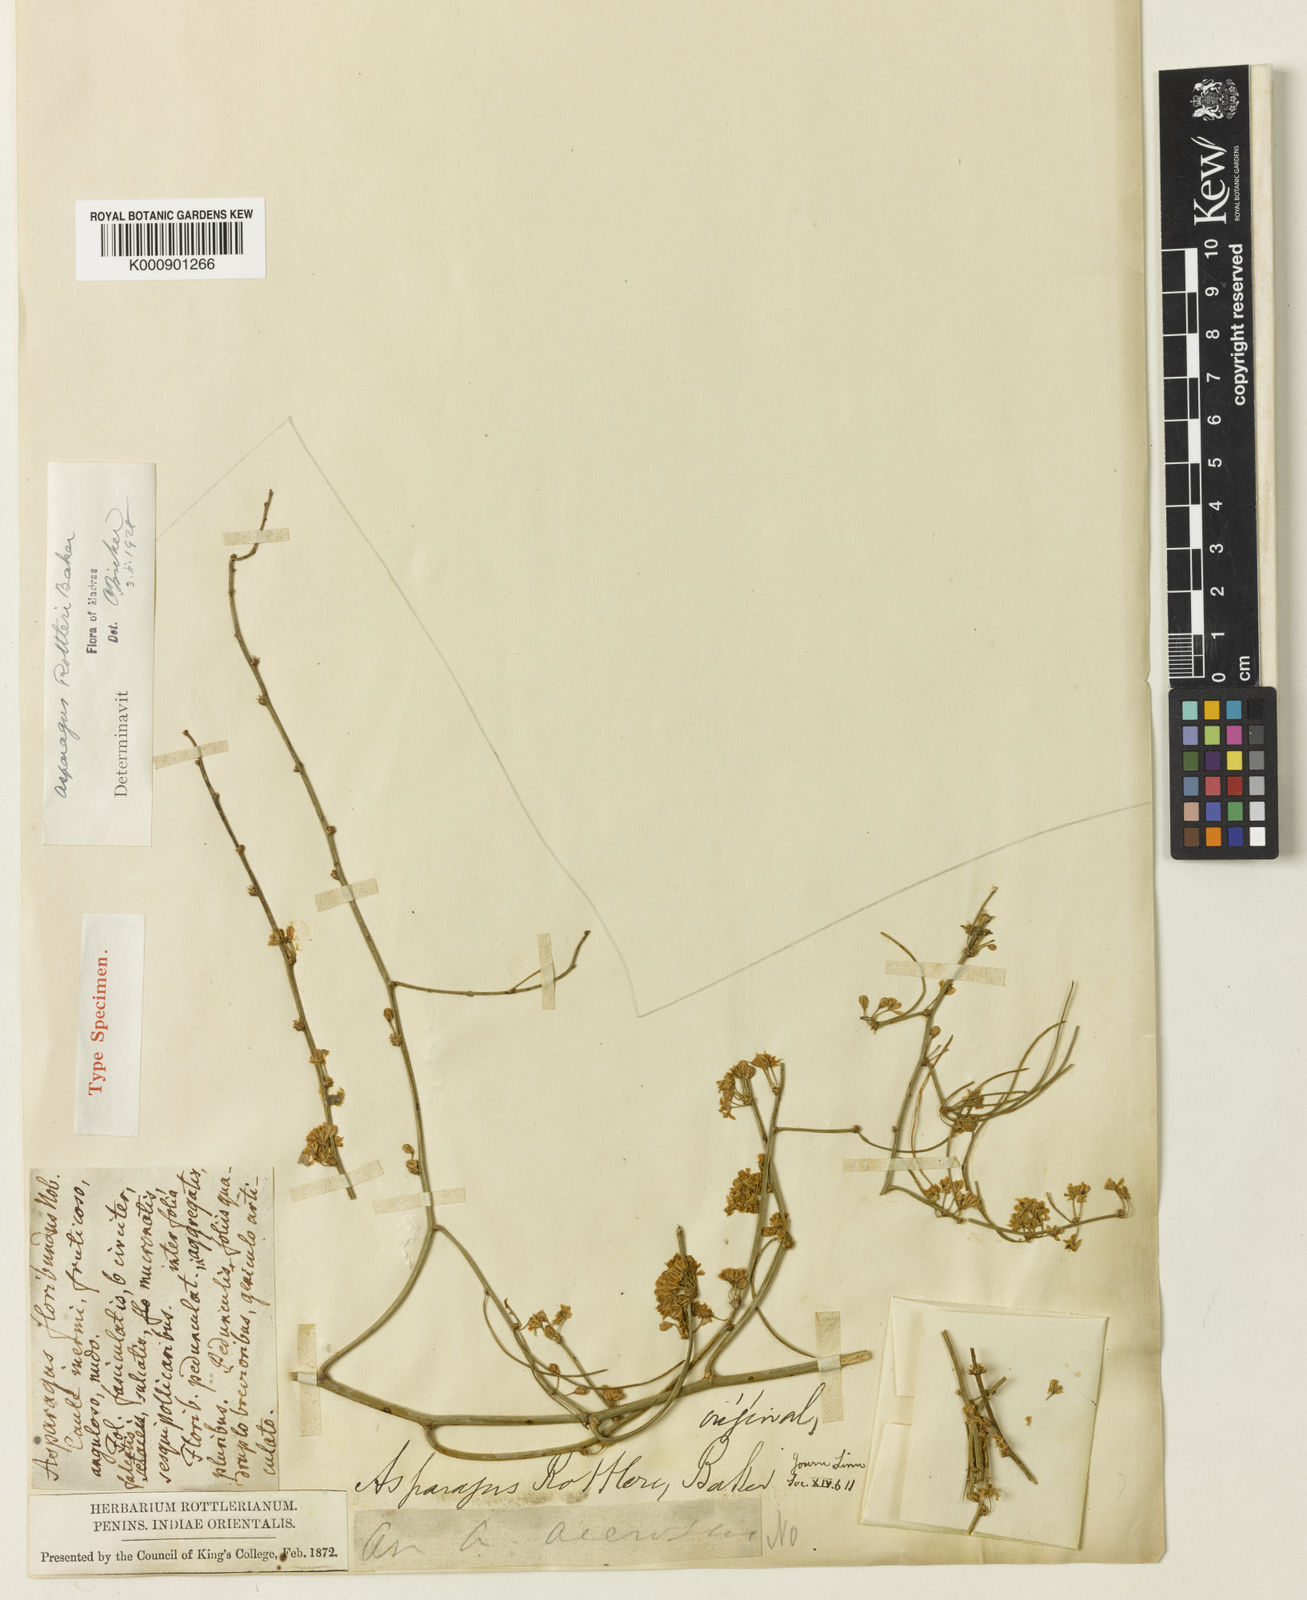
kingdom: Plantae
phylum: Tracheophyta
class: Liliopsida
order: Asparagales
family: Asparagaceae
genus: Asparagus
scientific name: Asparagus rottleri
